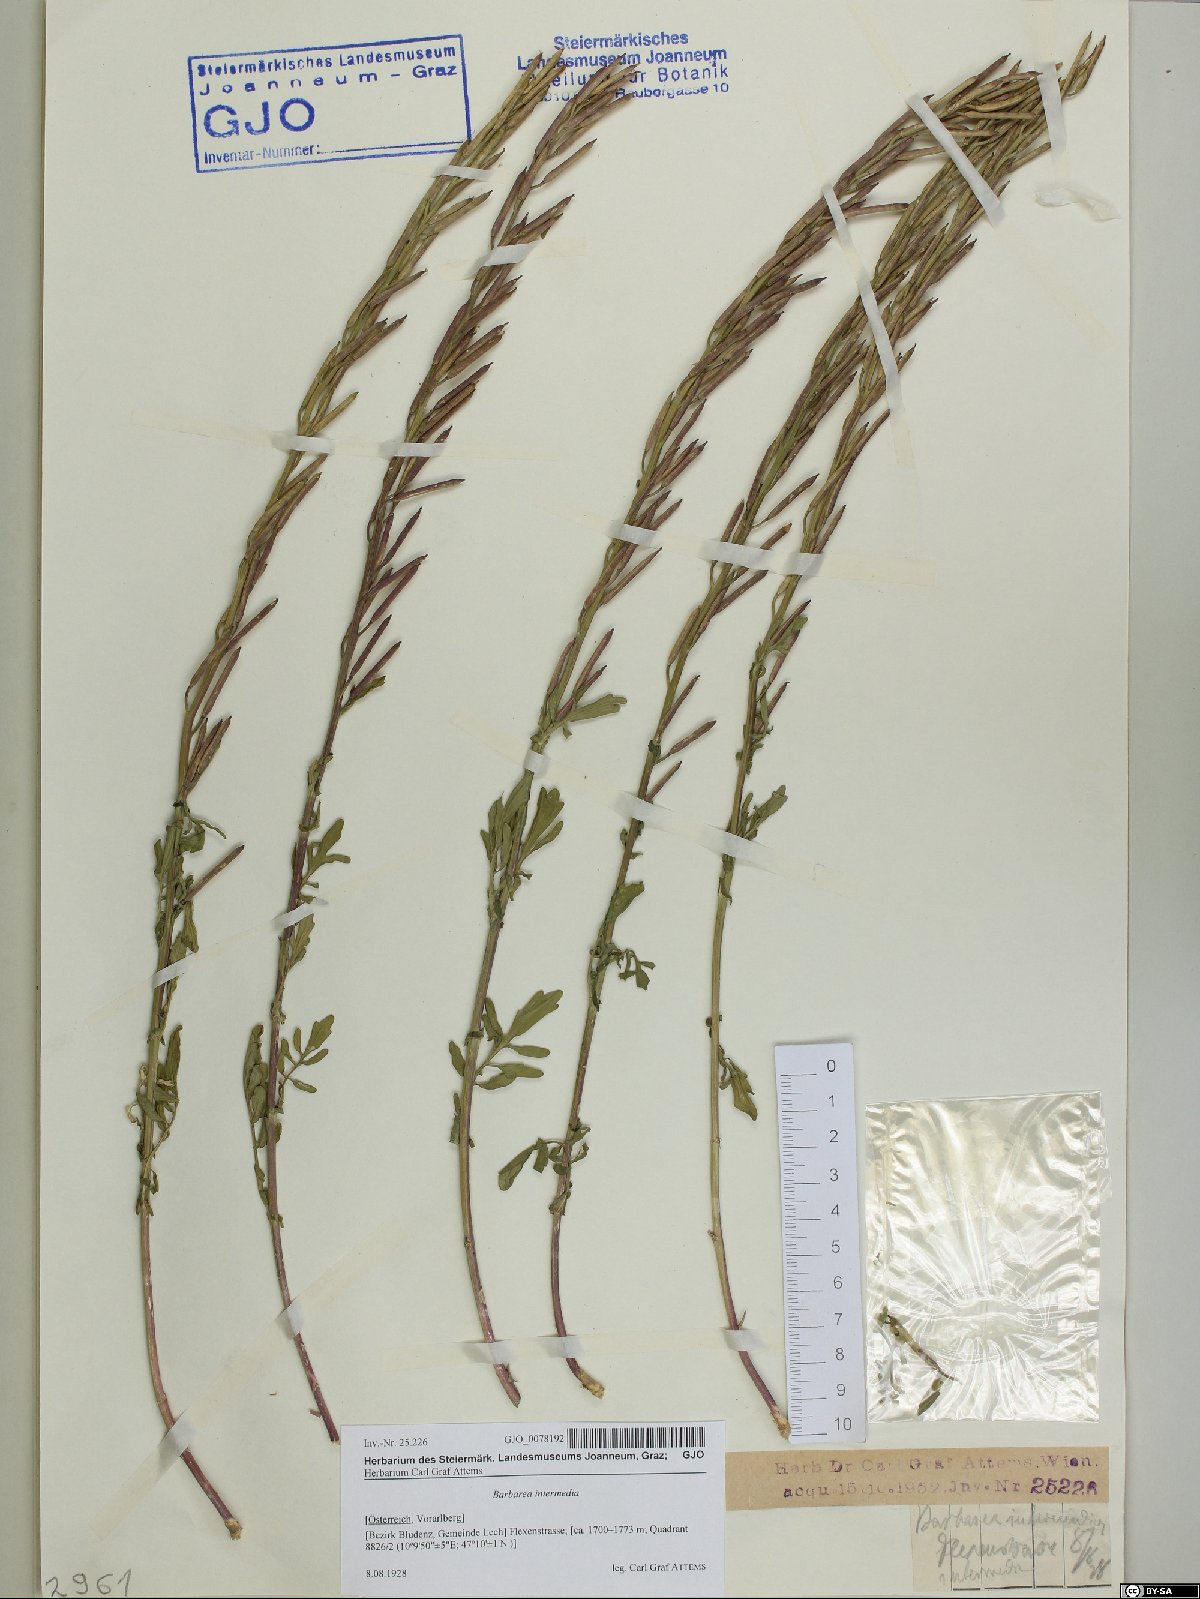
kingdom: Plantae
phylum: Tracheophyta
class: Magnoliopsida
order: Brassicales
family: Brassicaceae
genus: Barbarea
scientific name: Barbarea intermedia
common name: Medium-flowered winter-cress
